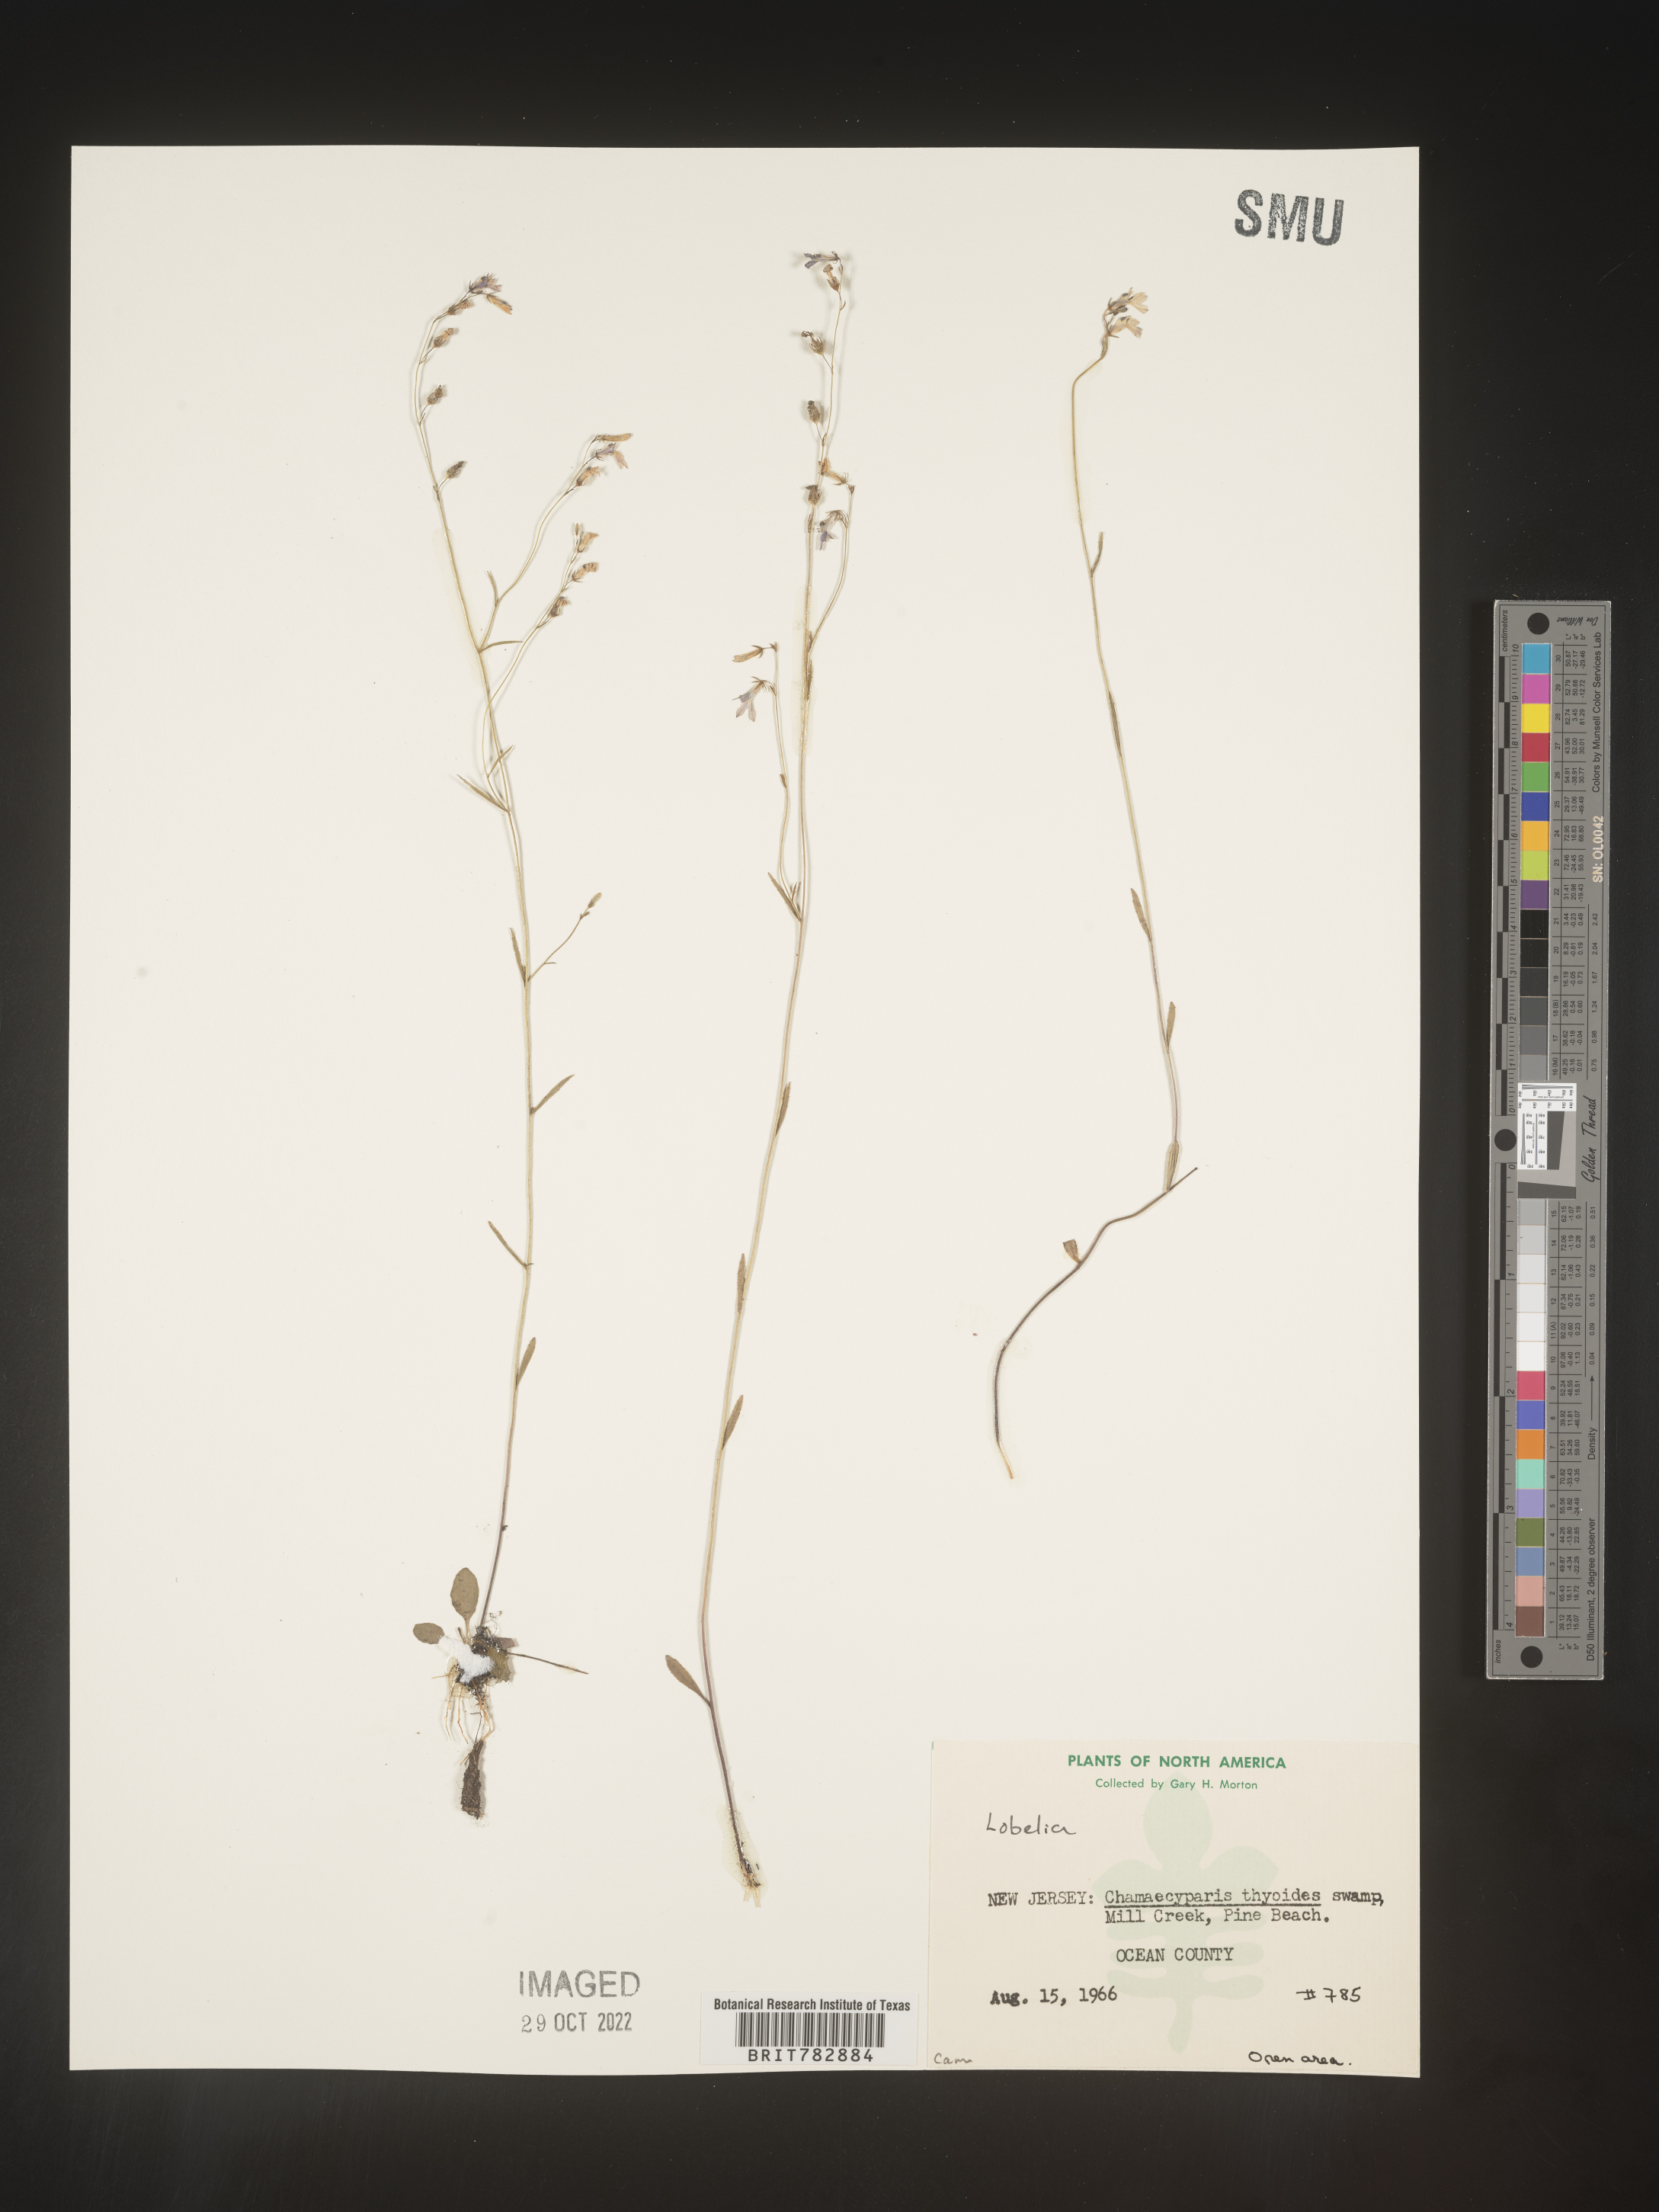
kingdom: Plantae
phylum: Tracheophyta
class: Magnoliopsida
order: Asterales
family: Campanulaceae
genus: Lobelia
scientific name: Lobelia
